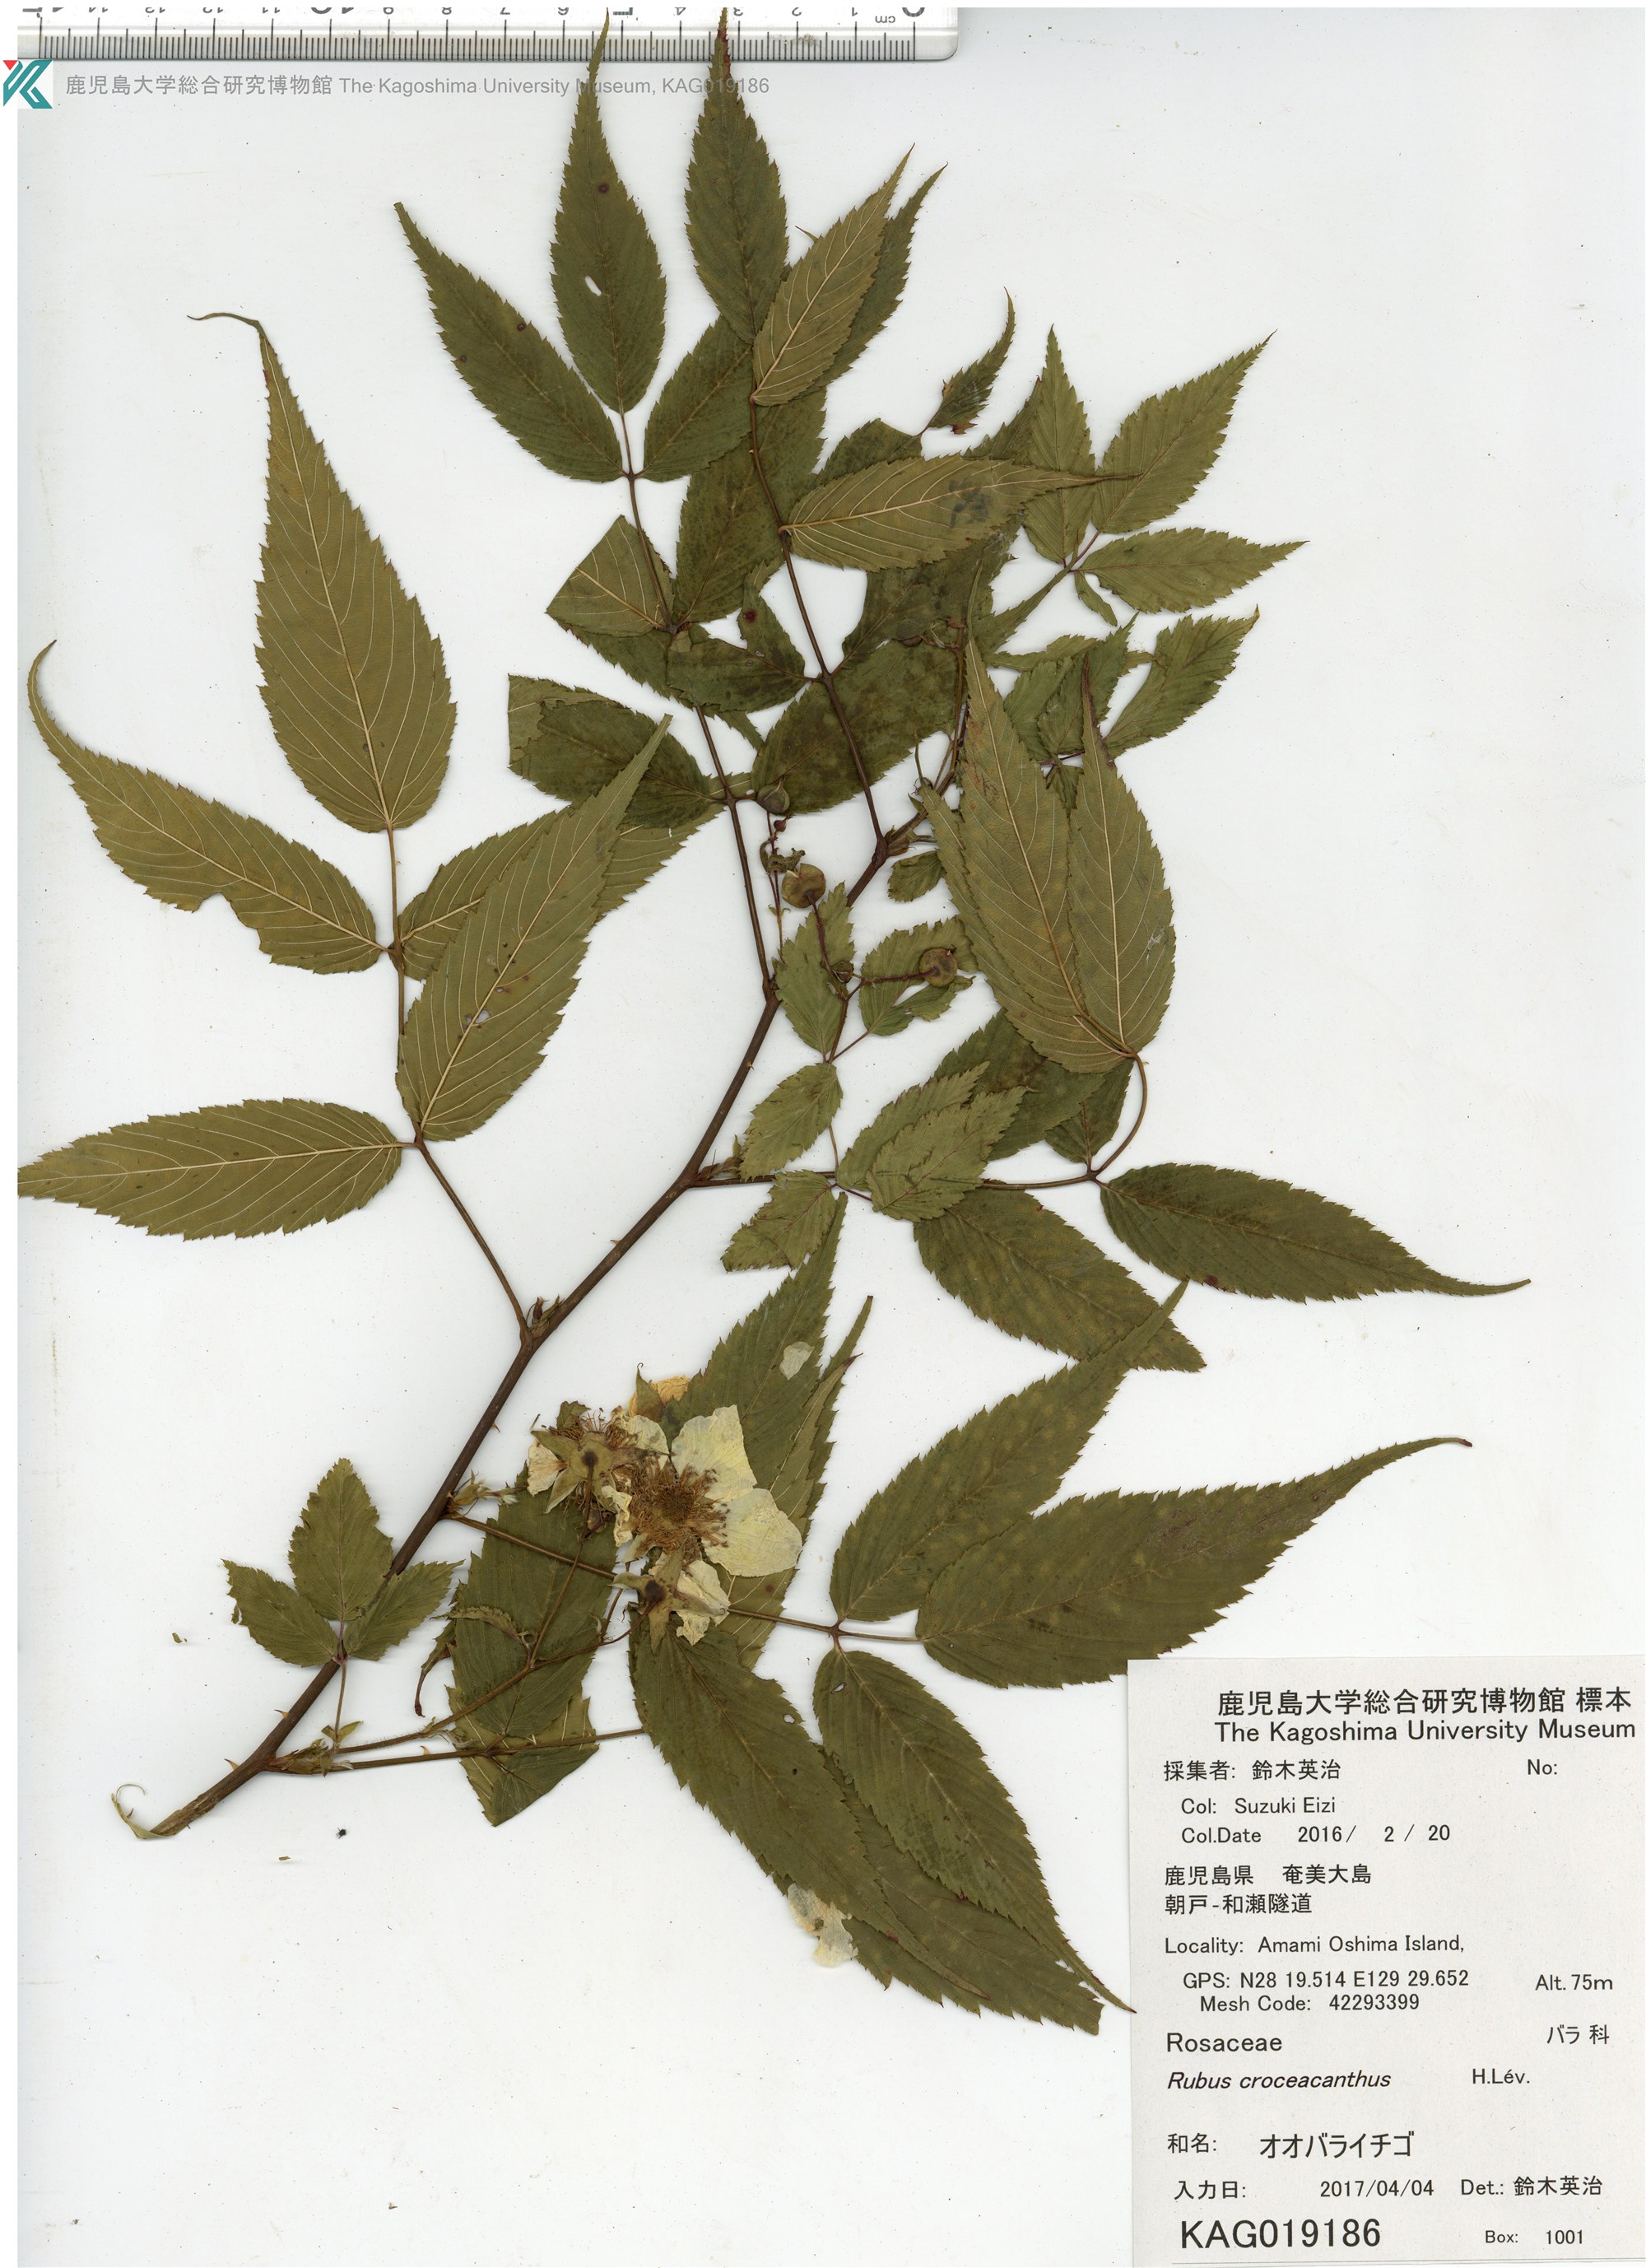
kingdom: Plantae
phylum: Tracheophyta
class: Magnoliopsida
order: Rosales
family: Rosaceae
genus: Rubus
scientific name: Rubus okinawensis
